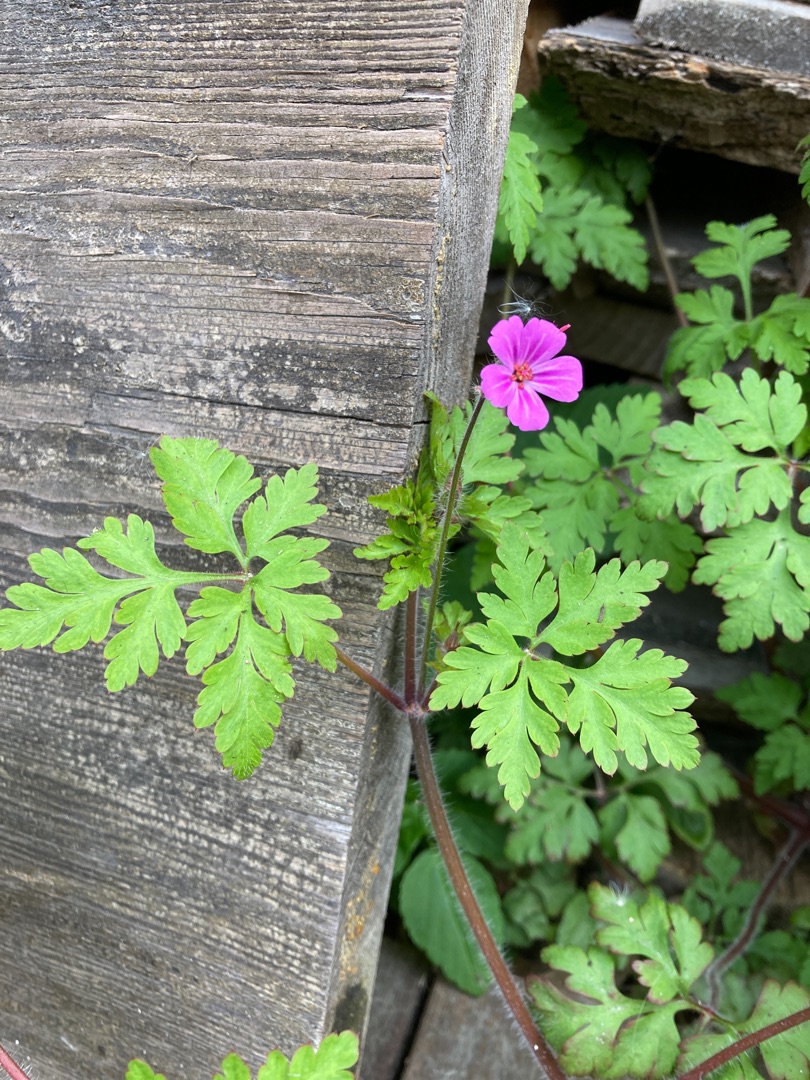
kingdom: Plantae
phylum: Tracheophyta
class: Magnoliopsida
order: Geraniales
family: Geraniaceae
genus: Geranium
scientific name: Geranium robertianum
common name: Stinkende storkenæb
